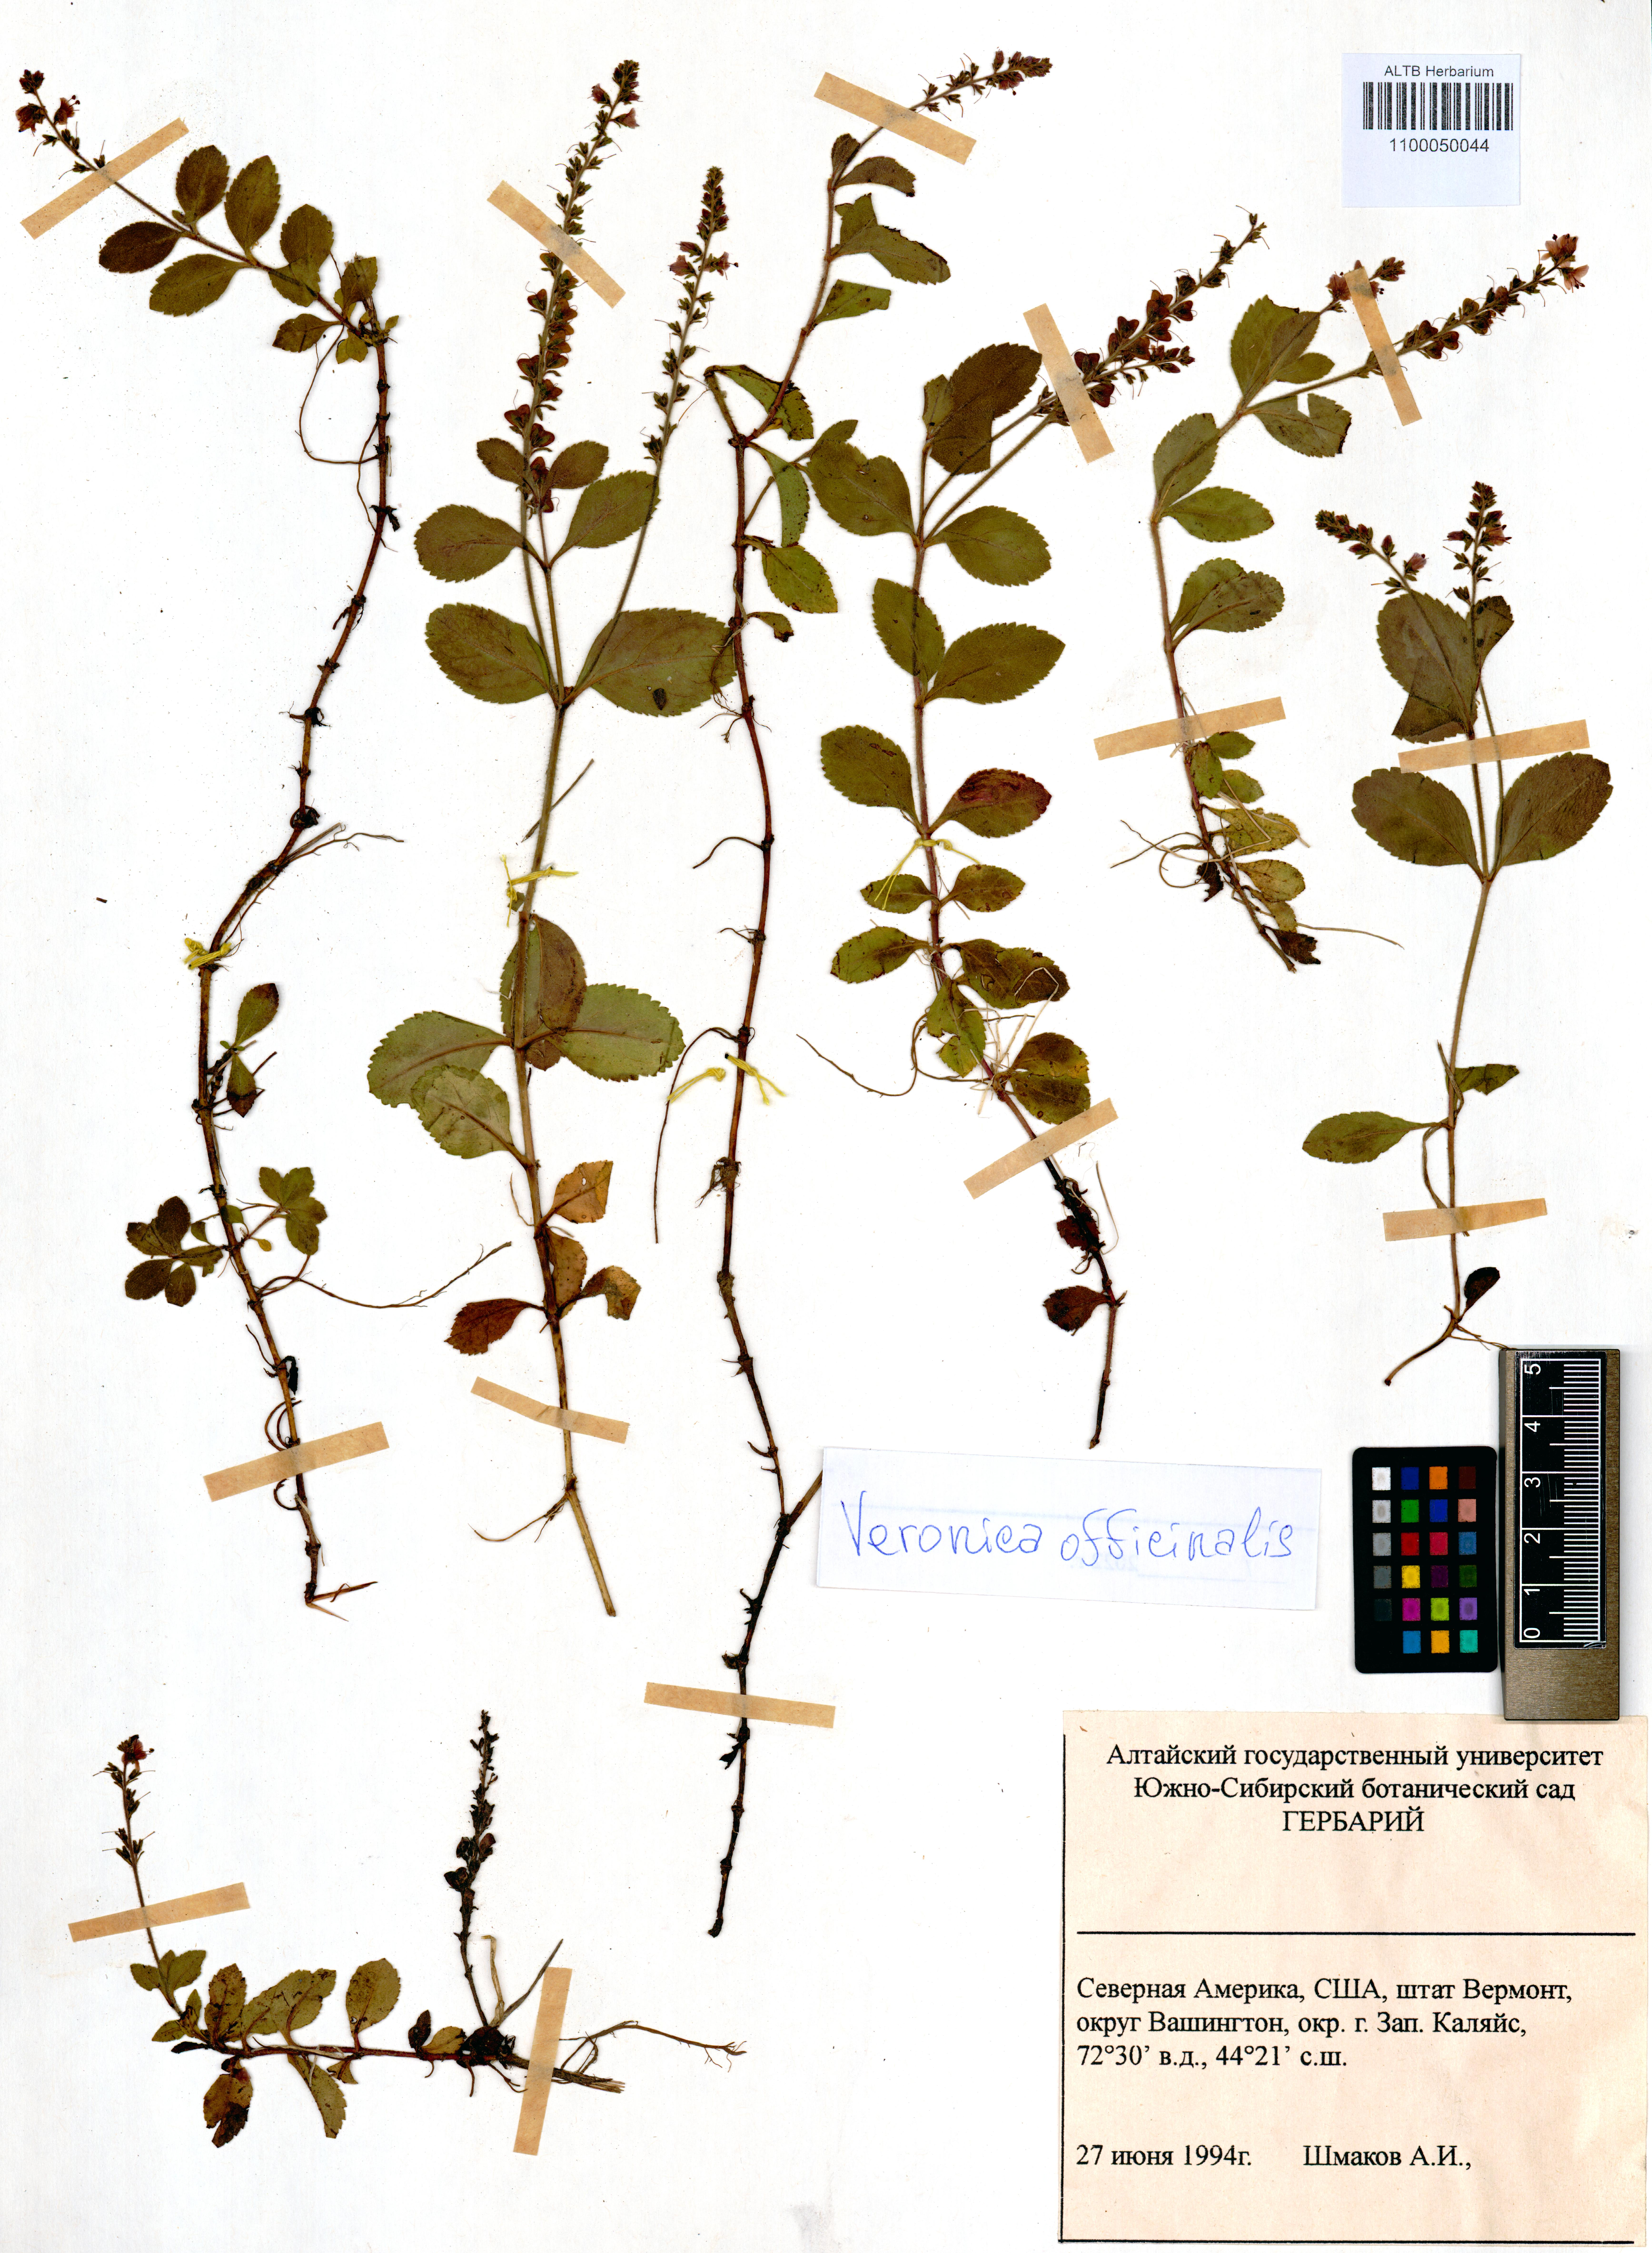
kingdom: Plantae
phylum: Tracheophyta
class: Magnoliopsida
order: Lamiales
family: Plantaginaceae
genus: Veronica
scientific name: Veronica officinalis
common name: Common speedwell
